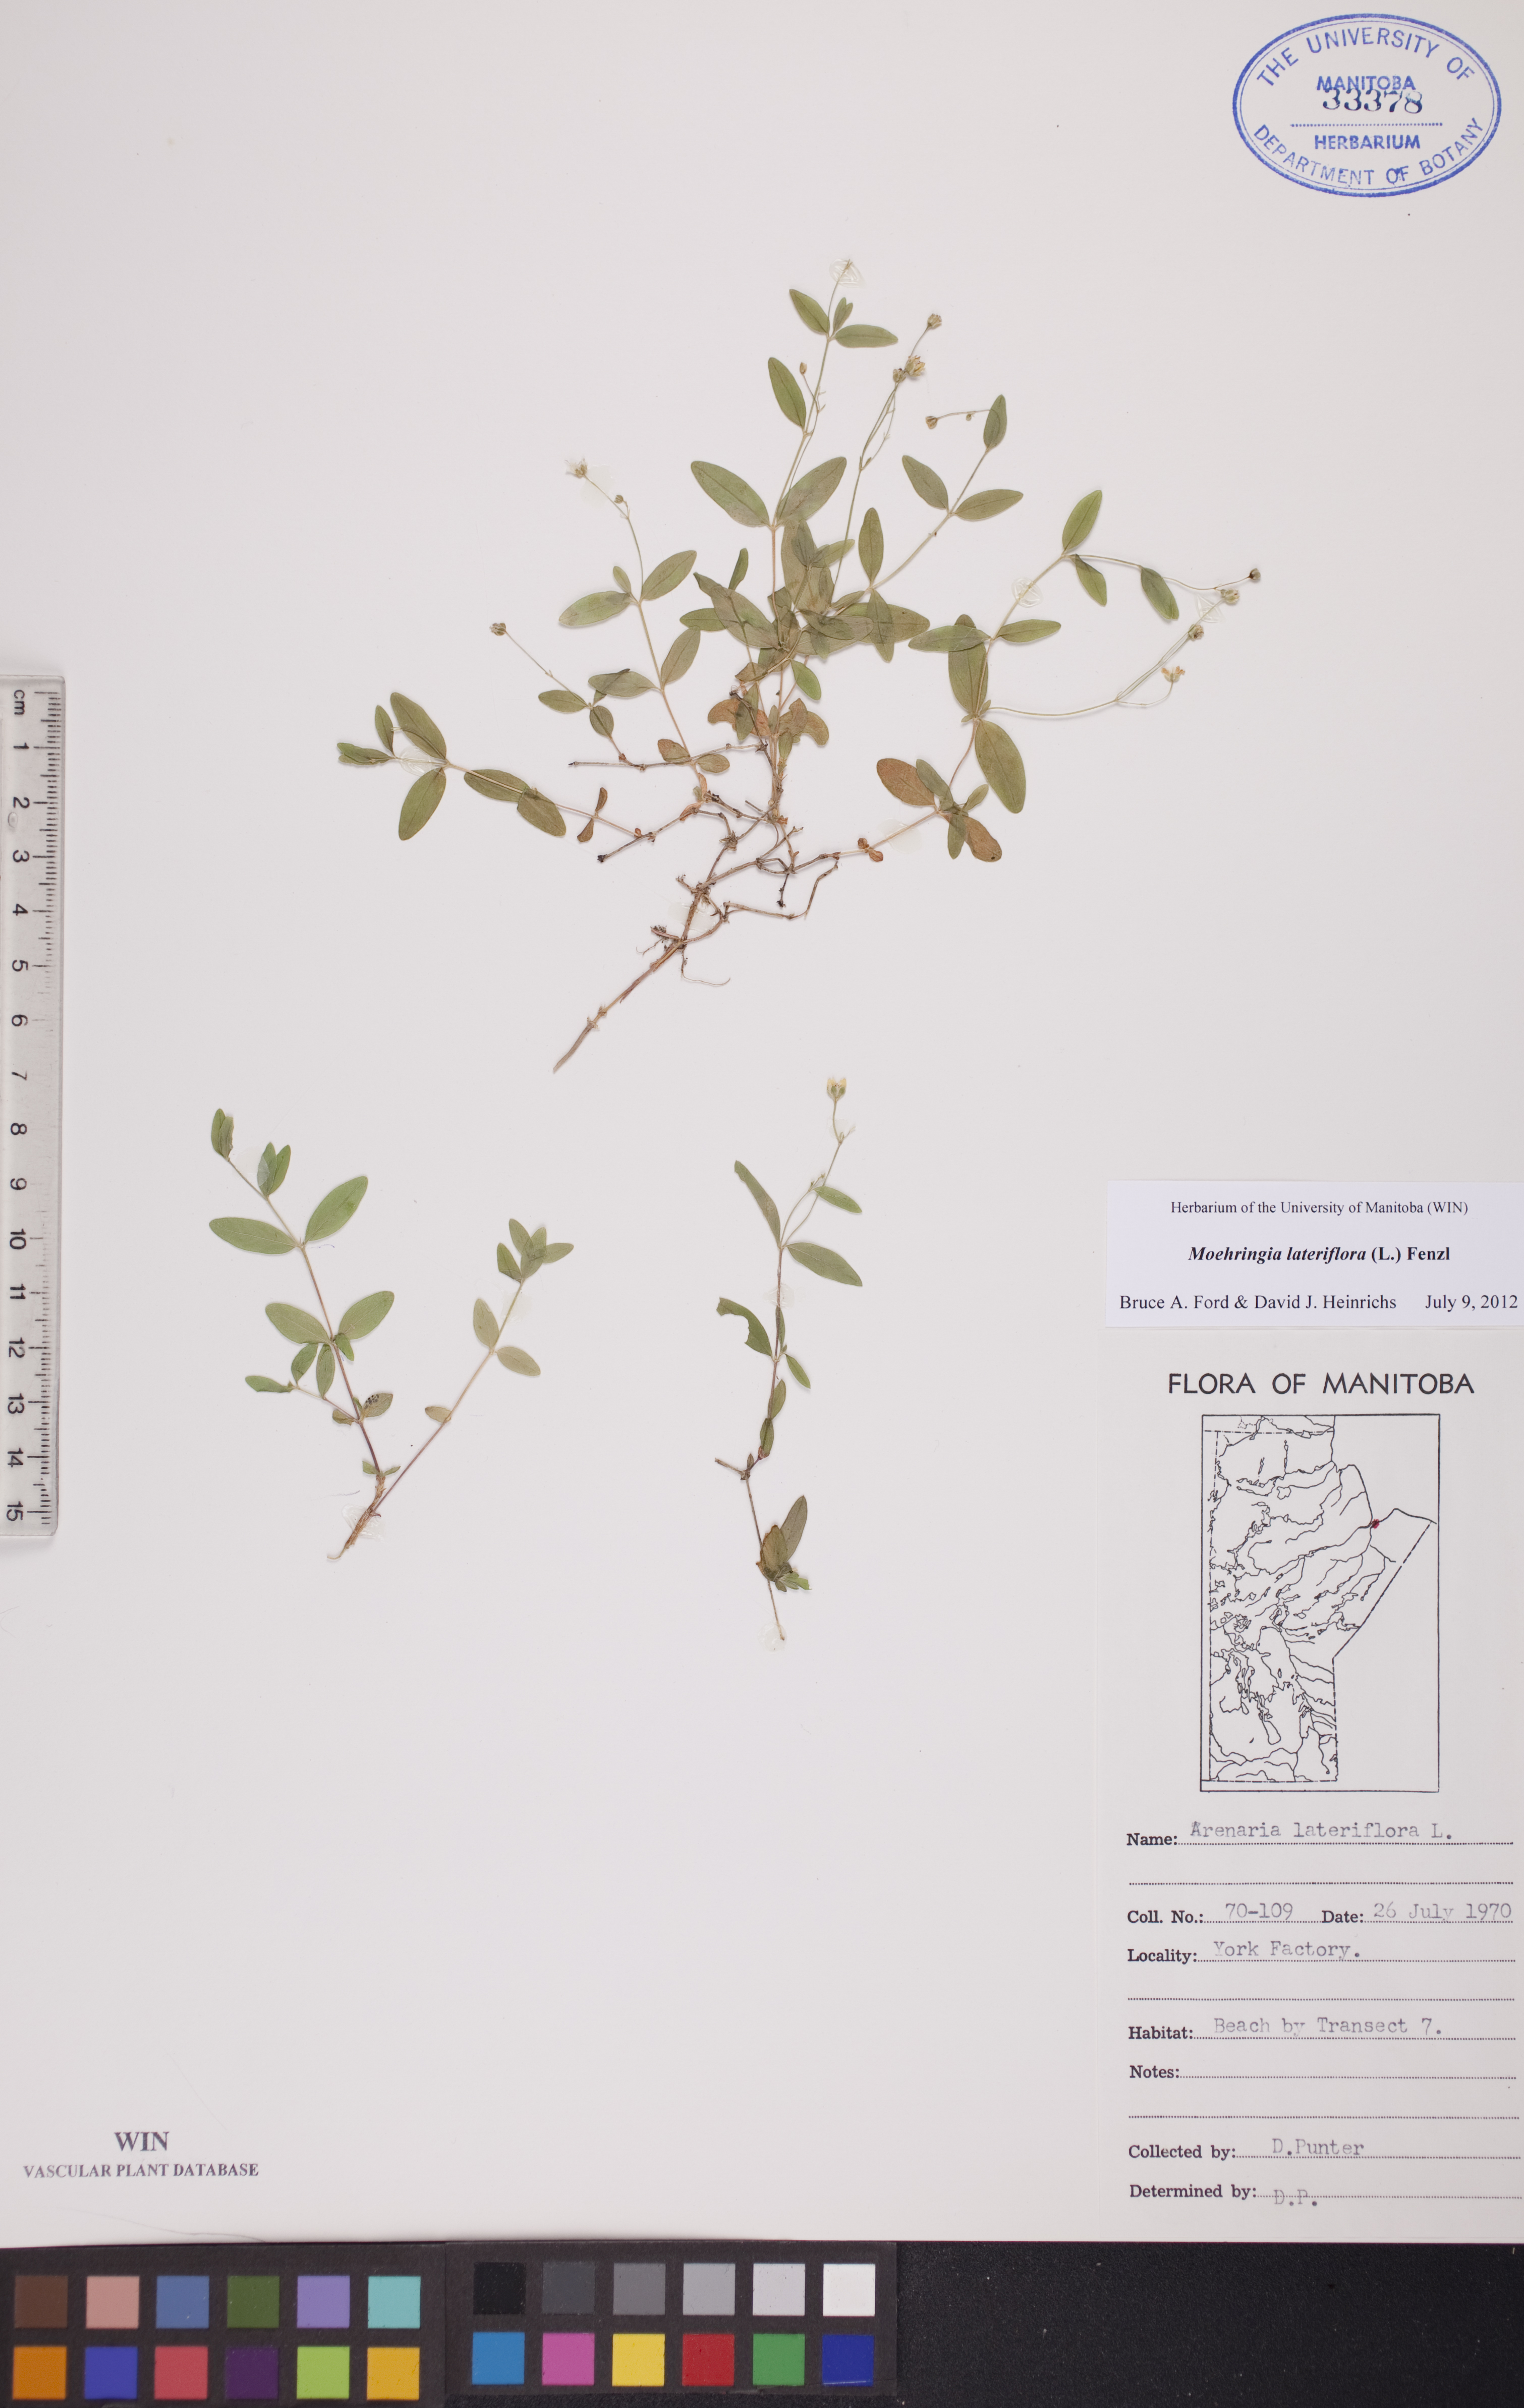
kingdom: Plantae
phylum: Tracheophyta
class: Magnoliopsida
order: Caryophyllales
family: Caryophyllaceae
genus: Moehringia
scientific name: Moehringia lateriflora
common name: Blunt-leaved sandwort
